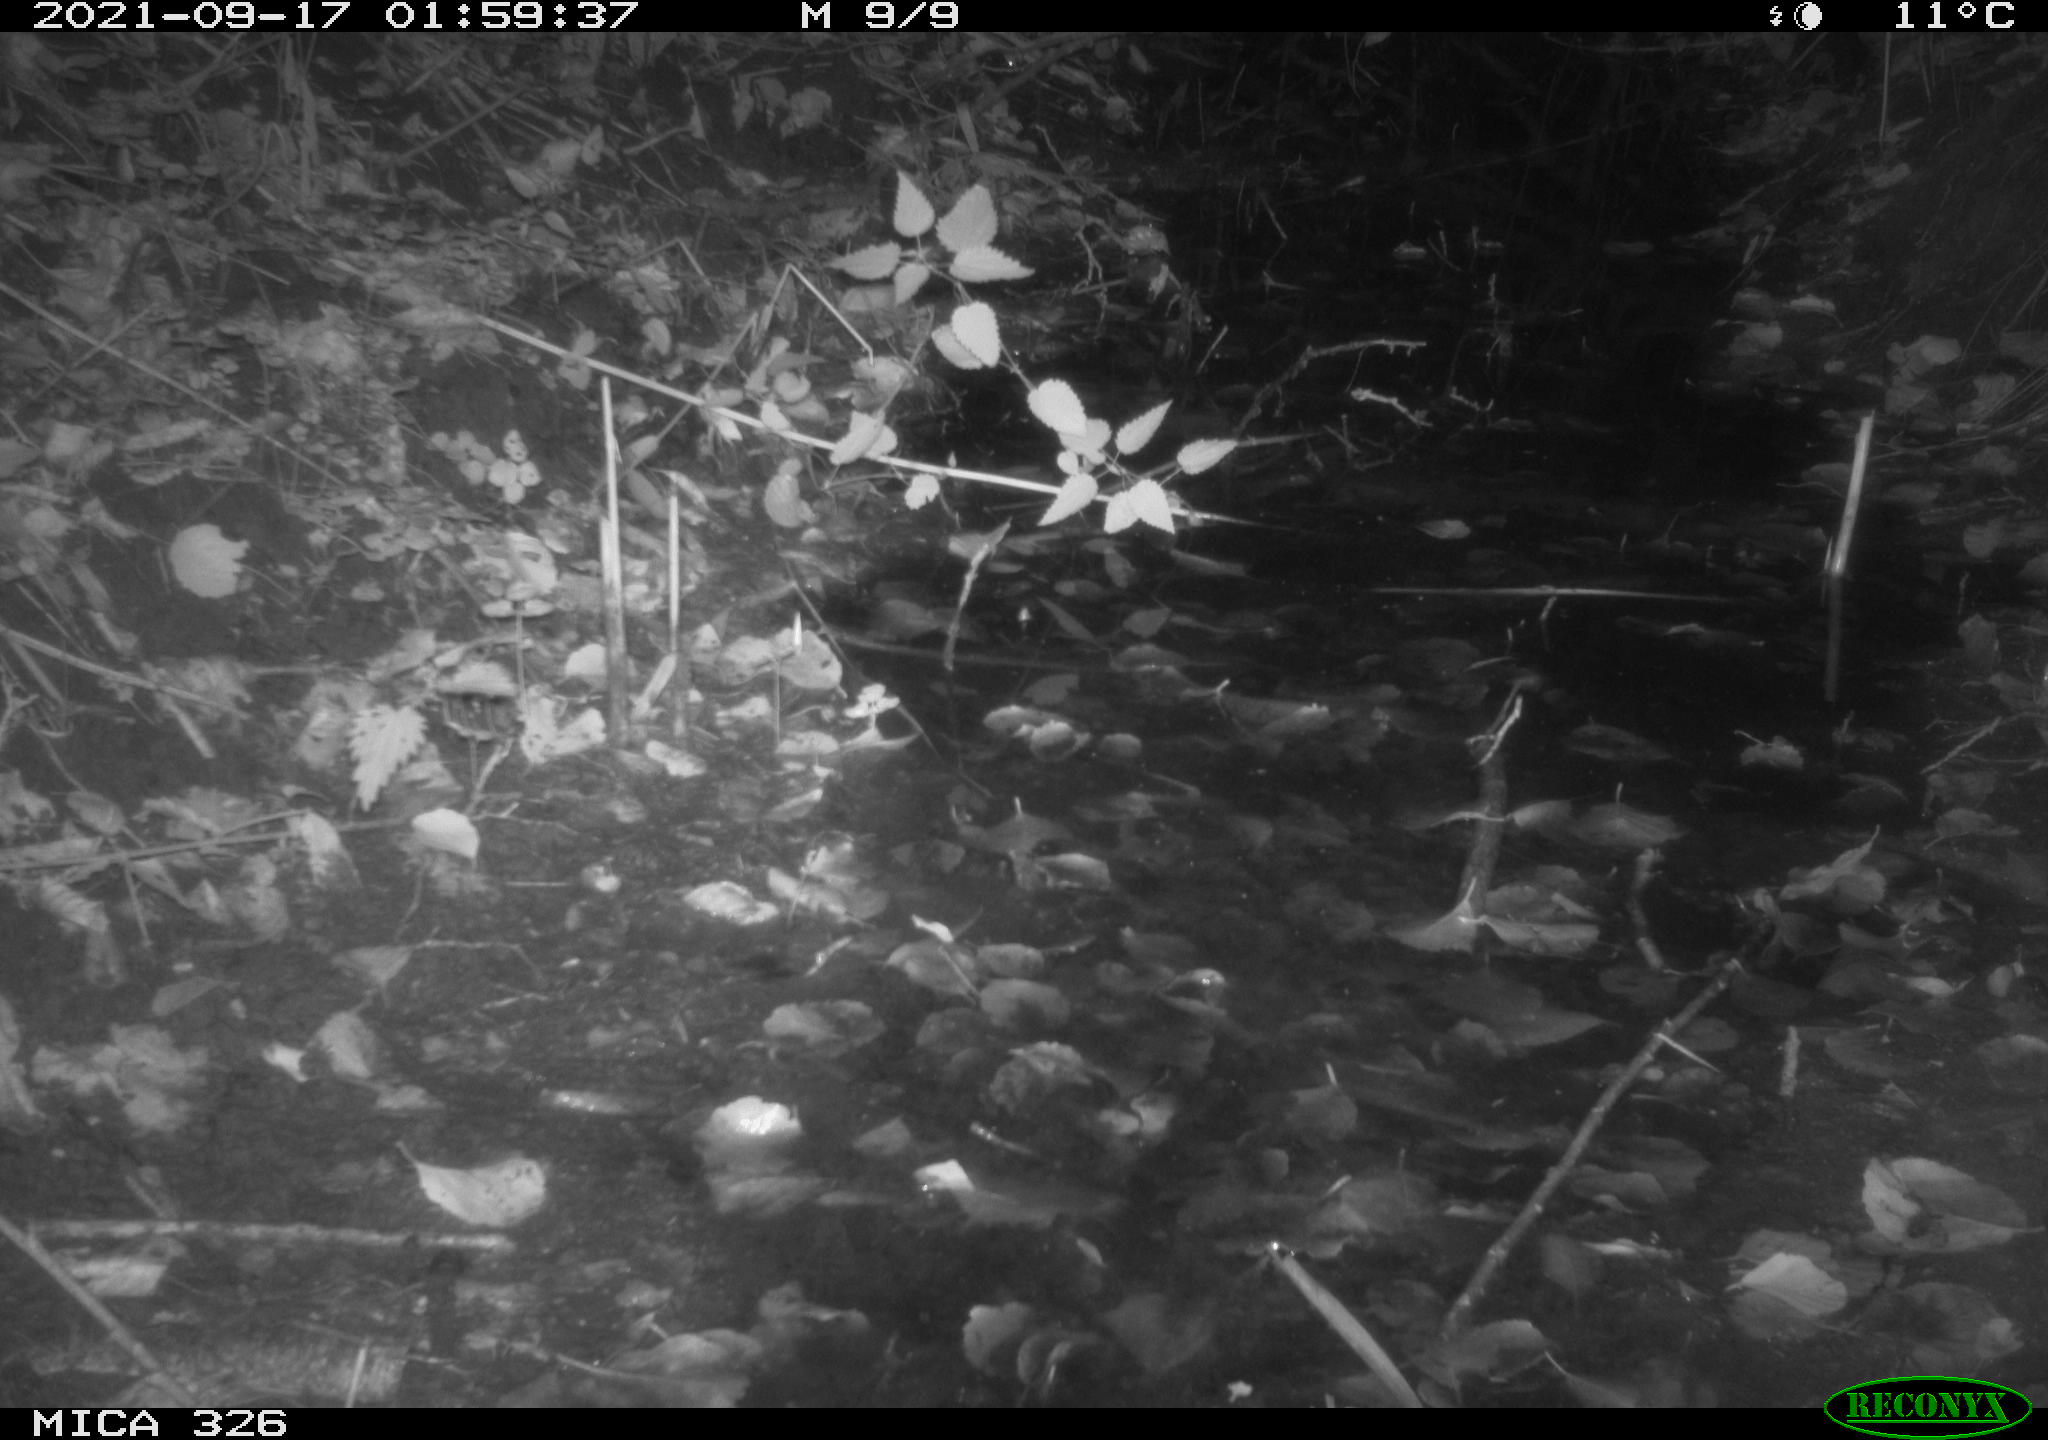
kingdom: Animalia
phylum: Chordata
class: Mammalia
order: Rodentia
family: Myocastoridae
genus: Myocastor
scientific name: Myocastor coypus
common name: Coypu
